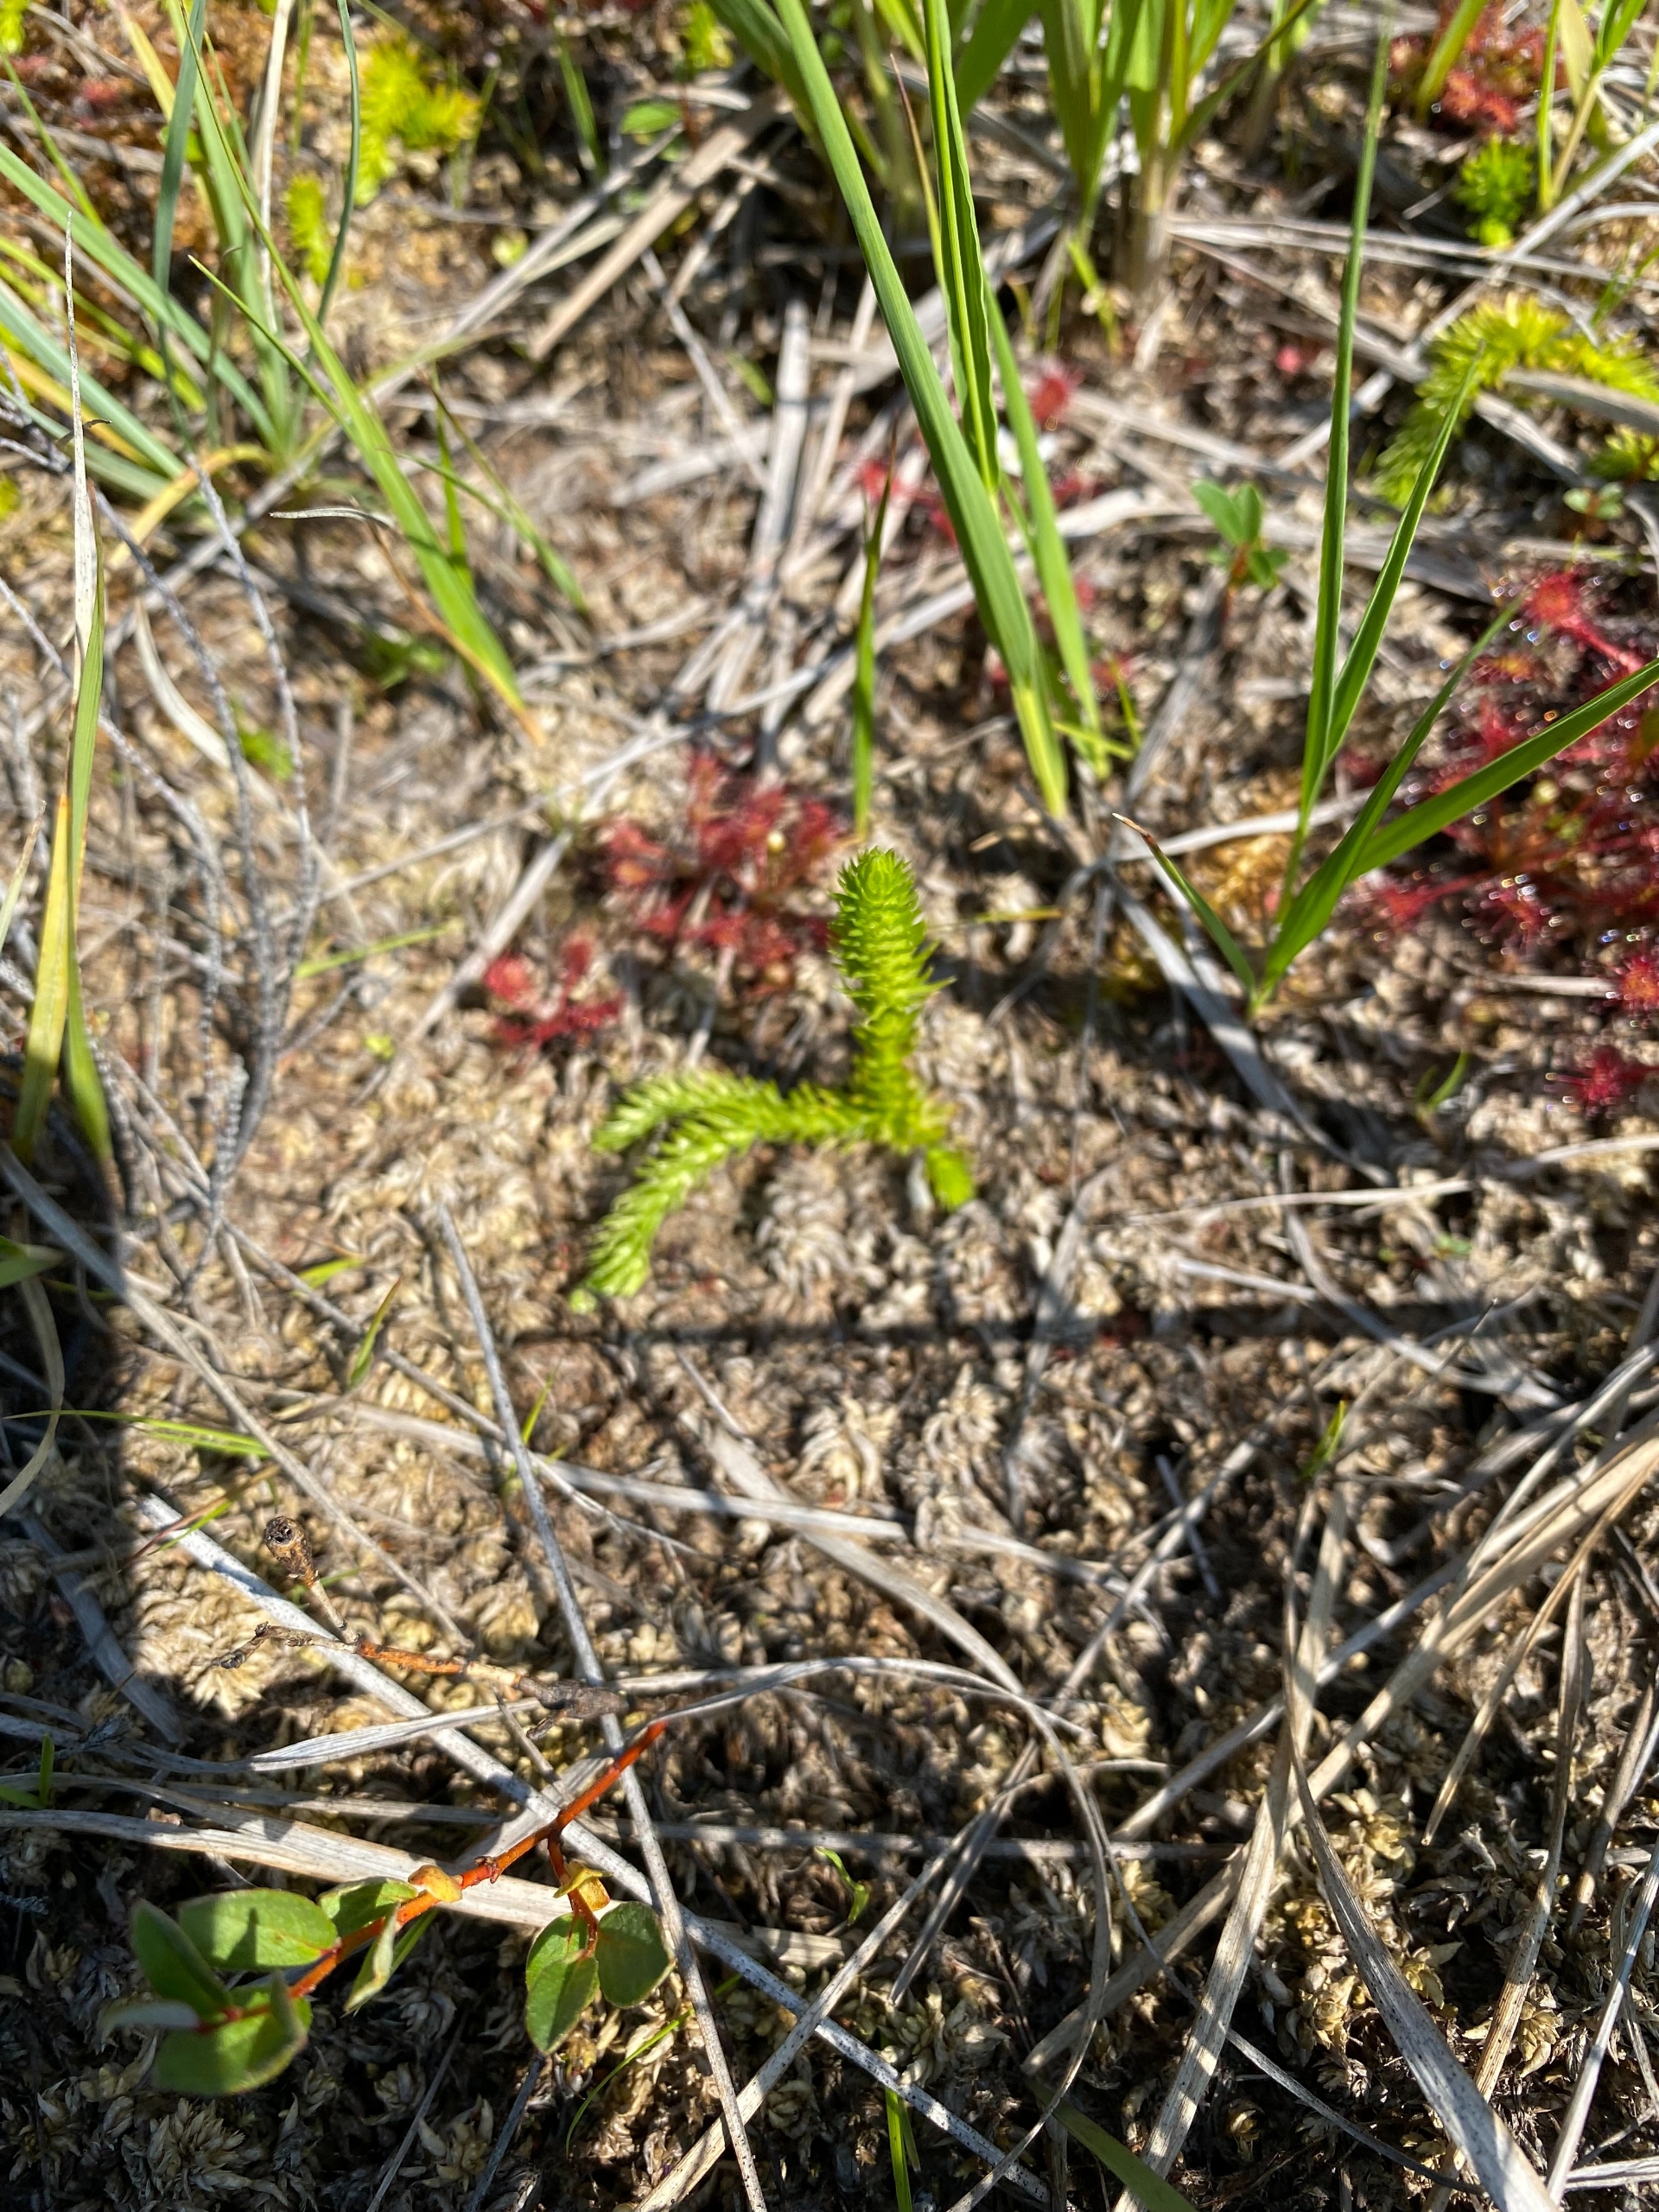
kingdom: Plantae
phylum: Tracheophyta
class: Lycopodiopsida
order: Lycopodiales
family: Lycopodiaceae
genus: Lycopodiella
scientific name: Lycopodiella inundata
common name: Liden ulvefod
